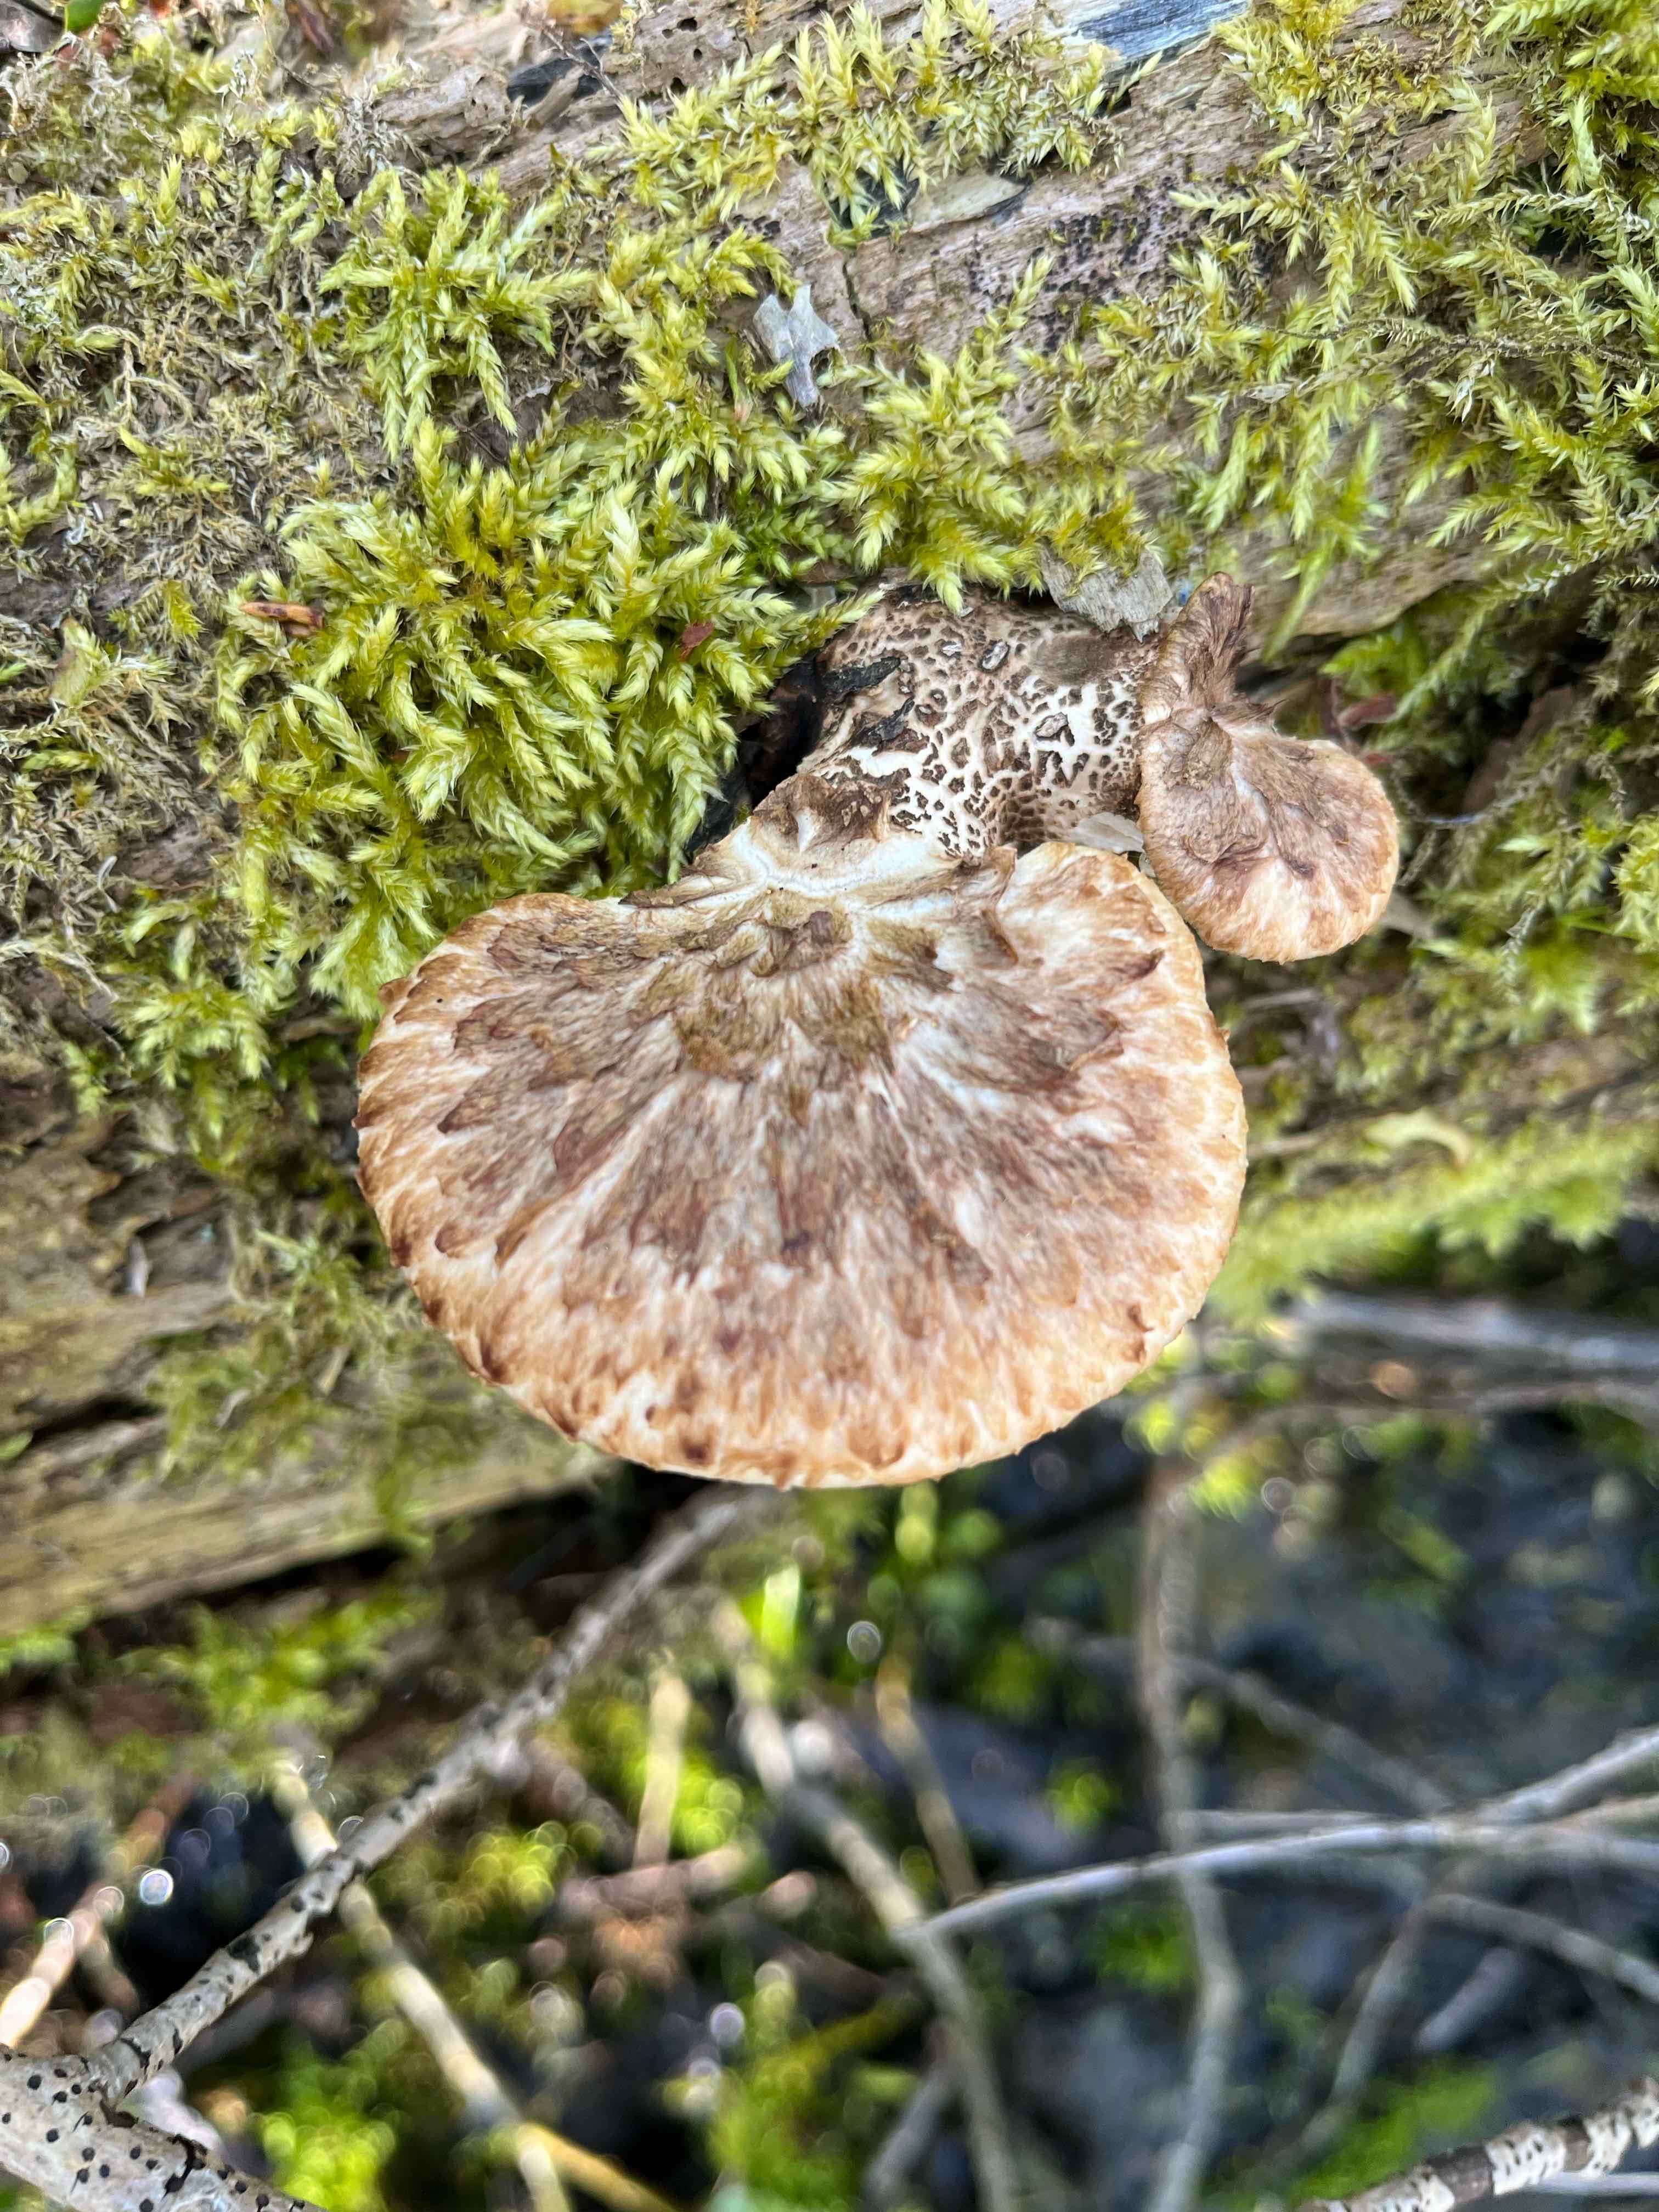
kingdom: Fungi
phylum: Basidiomycota
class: Agaricomycetes
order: Polyporales
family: Polyporaceae
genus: Cerioporus
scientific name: Cerioporus squamosus
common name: skællet stilkporesvamp
